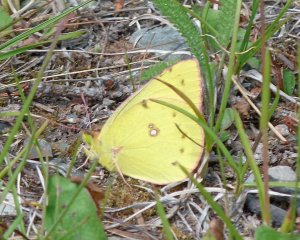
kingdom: Animalia
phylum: Arthropoda
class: Insecta
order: Lepidoptera
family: Pieridae
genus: Colias
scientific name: Colias philodice
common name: Clouded Sulphur
